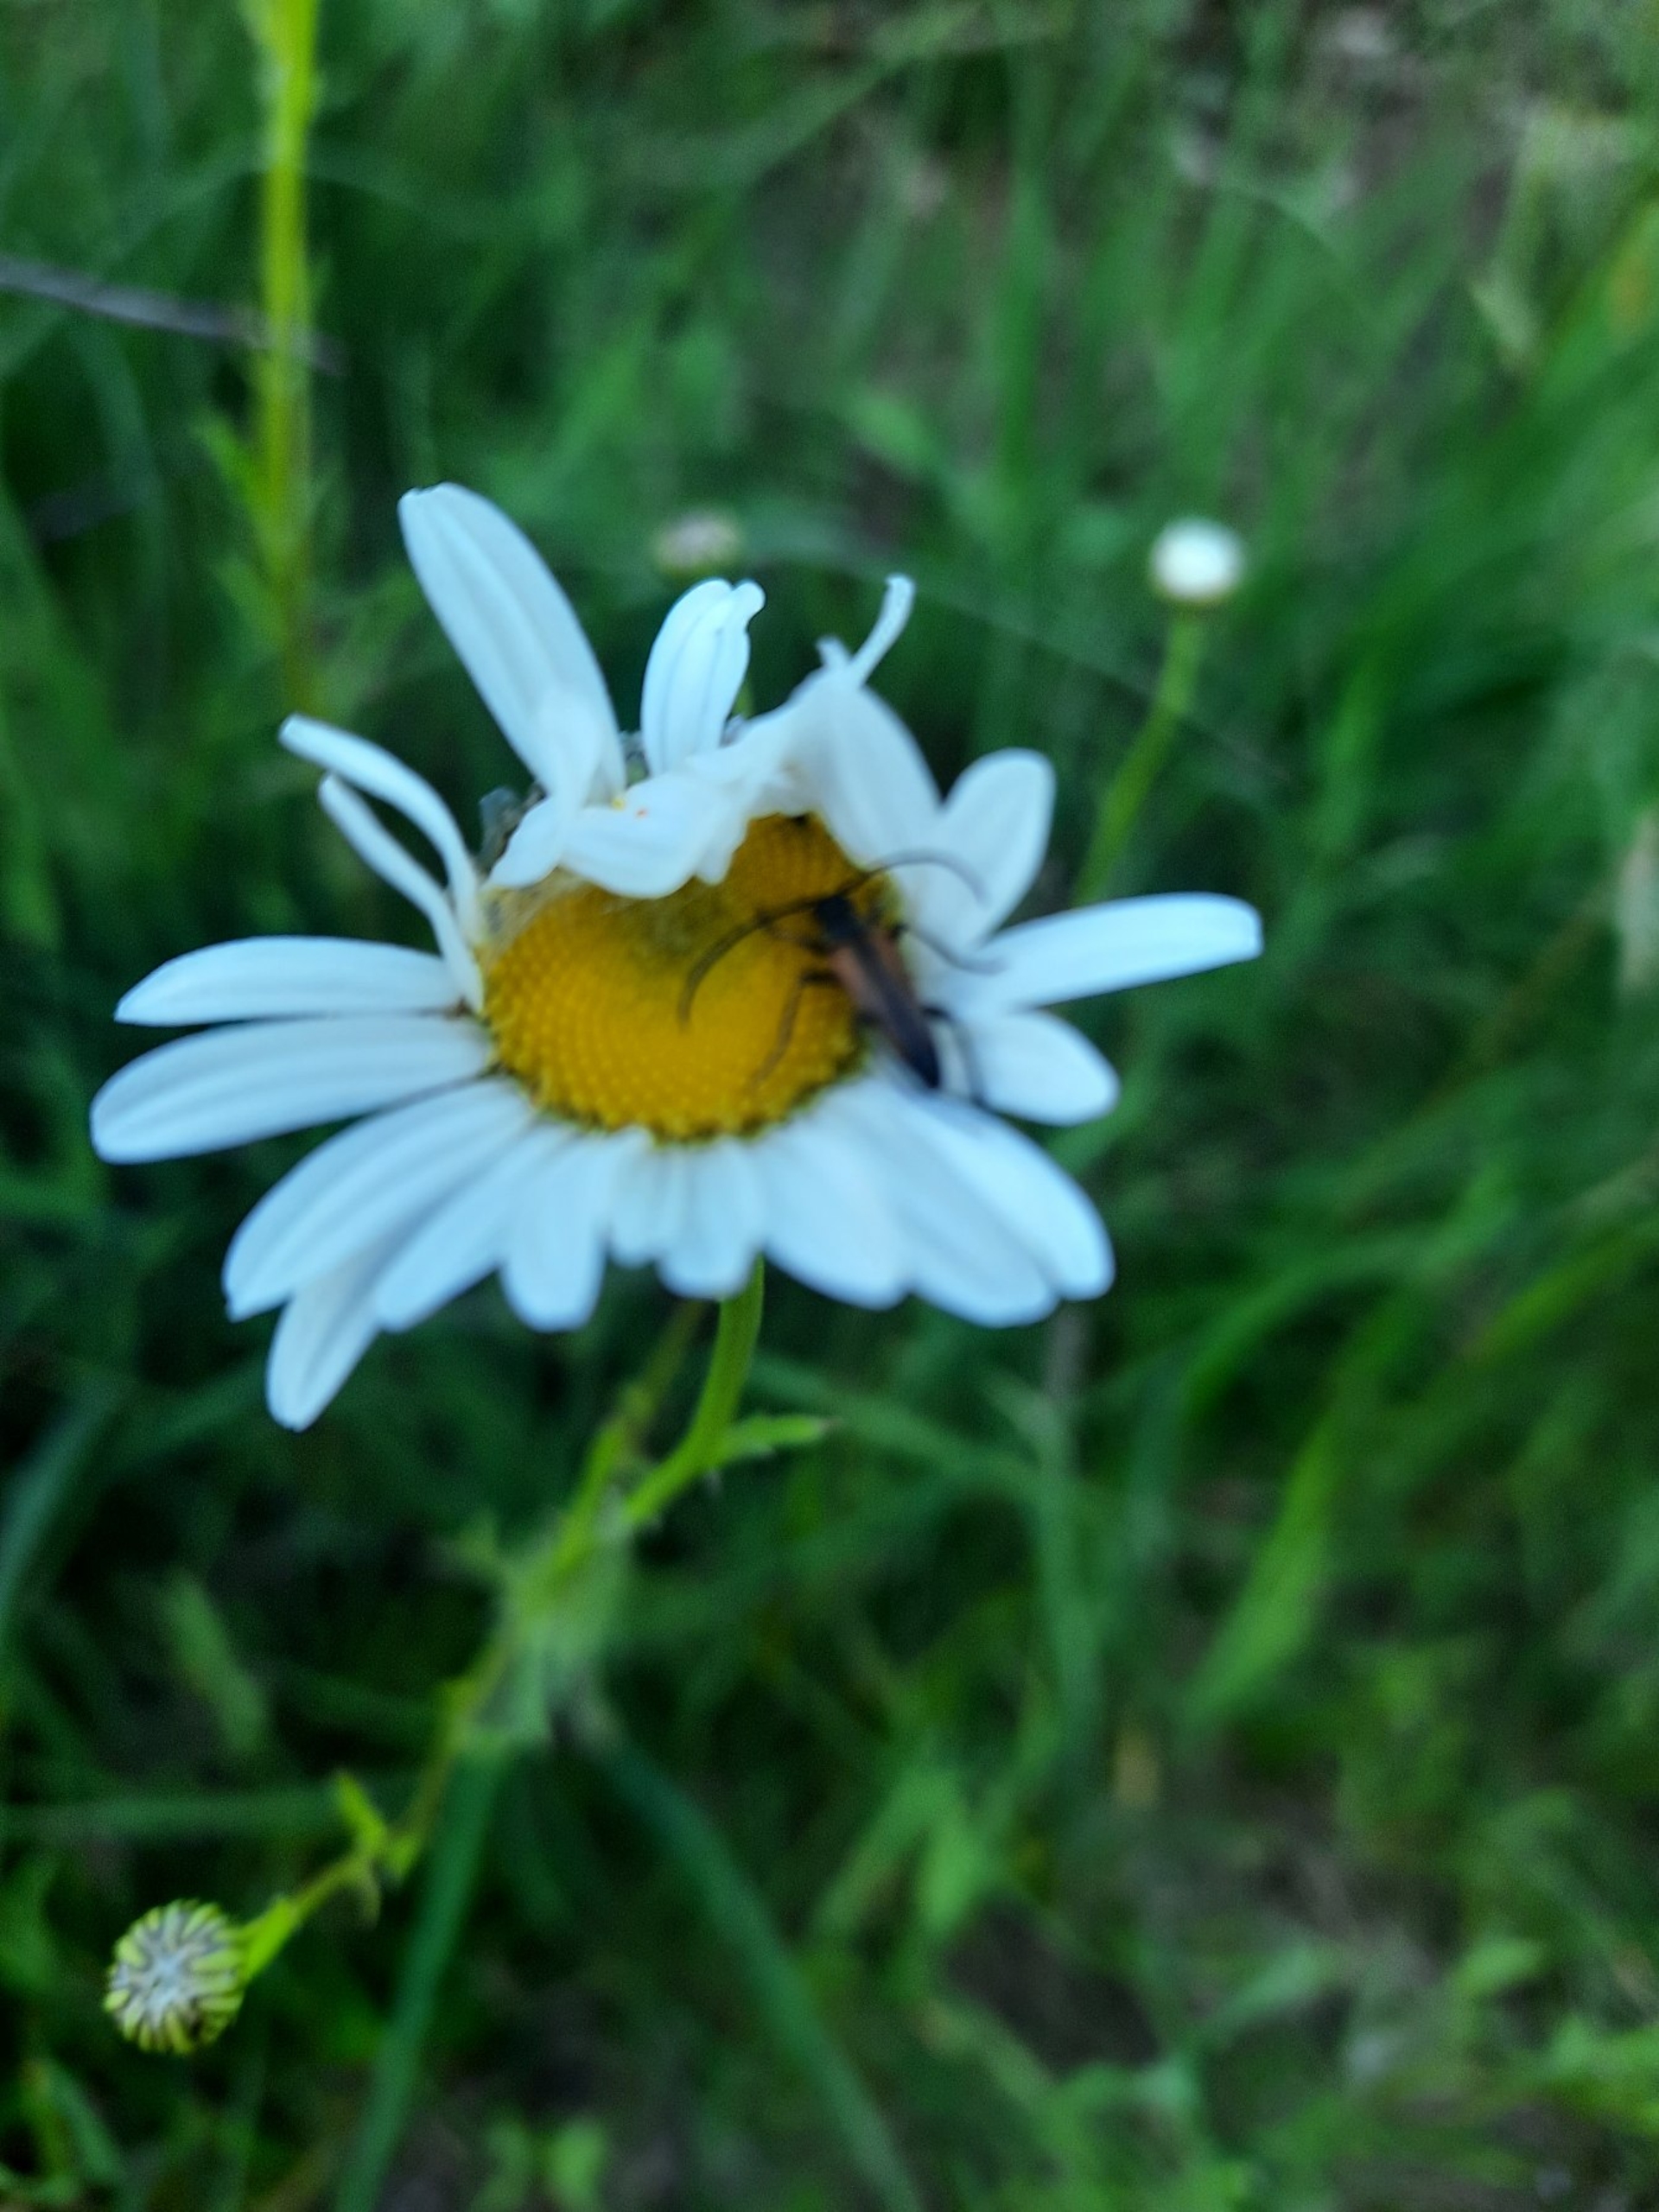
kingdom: Animalia
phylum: Arthropoda
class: Insecta
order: Coleoptera
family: Cerambycidae
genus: Stenurella
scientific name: Stenurella melanura
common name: Sortsømmet blomsterbuk
